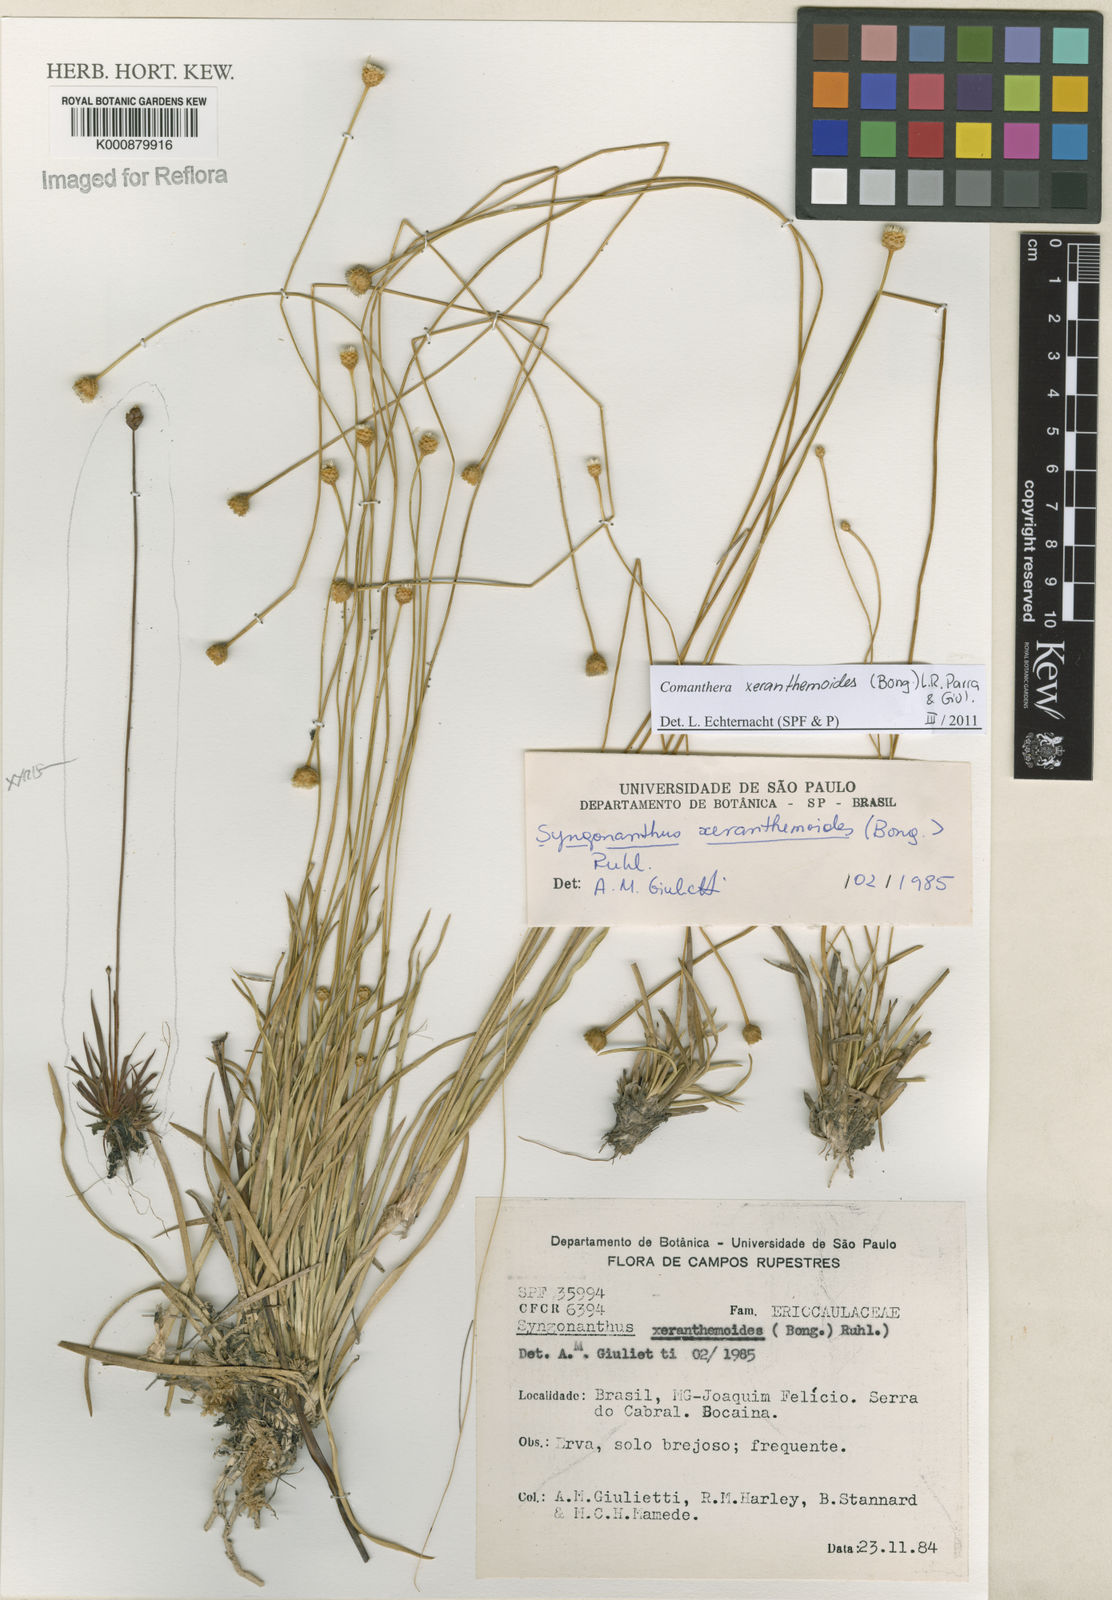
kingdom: Plantae
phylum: Tracheophyta
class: Liliopsida
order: Poales
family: Eriocaulaceae
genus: Comanthera
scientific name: Comanthera xeranthemoides
